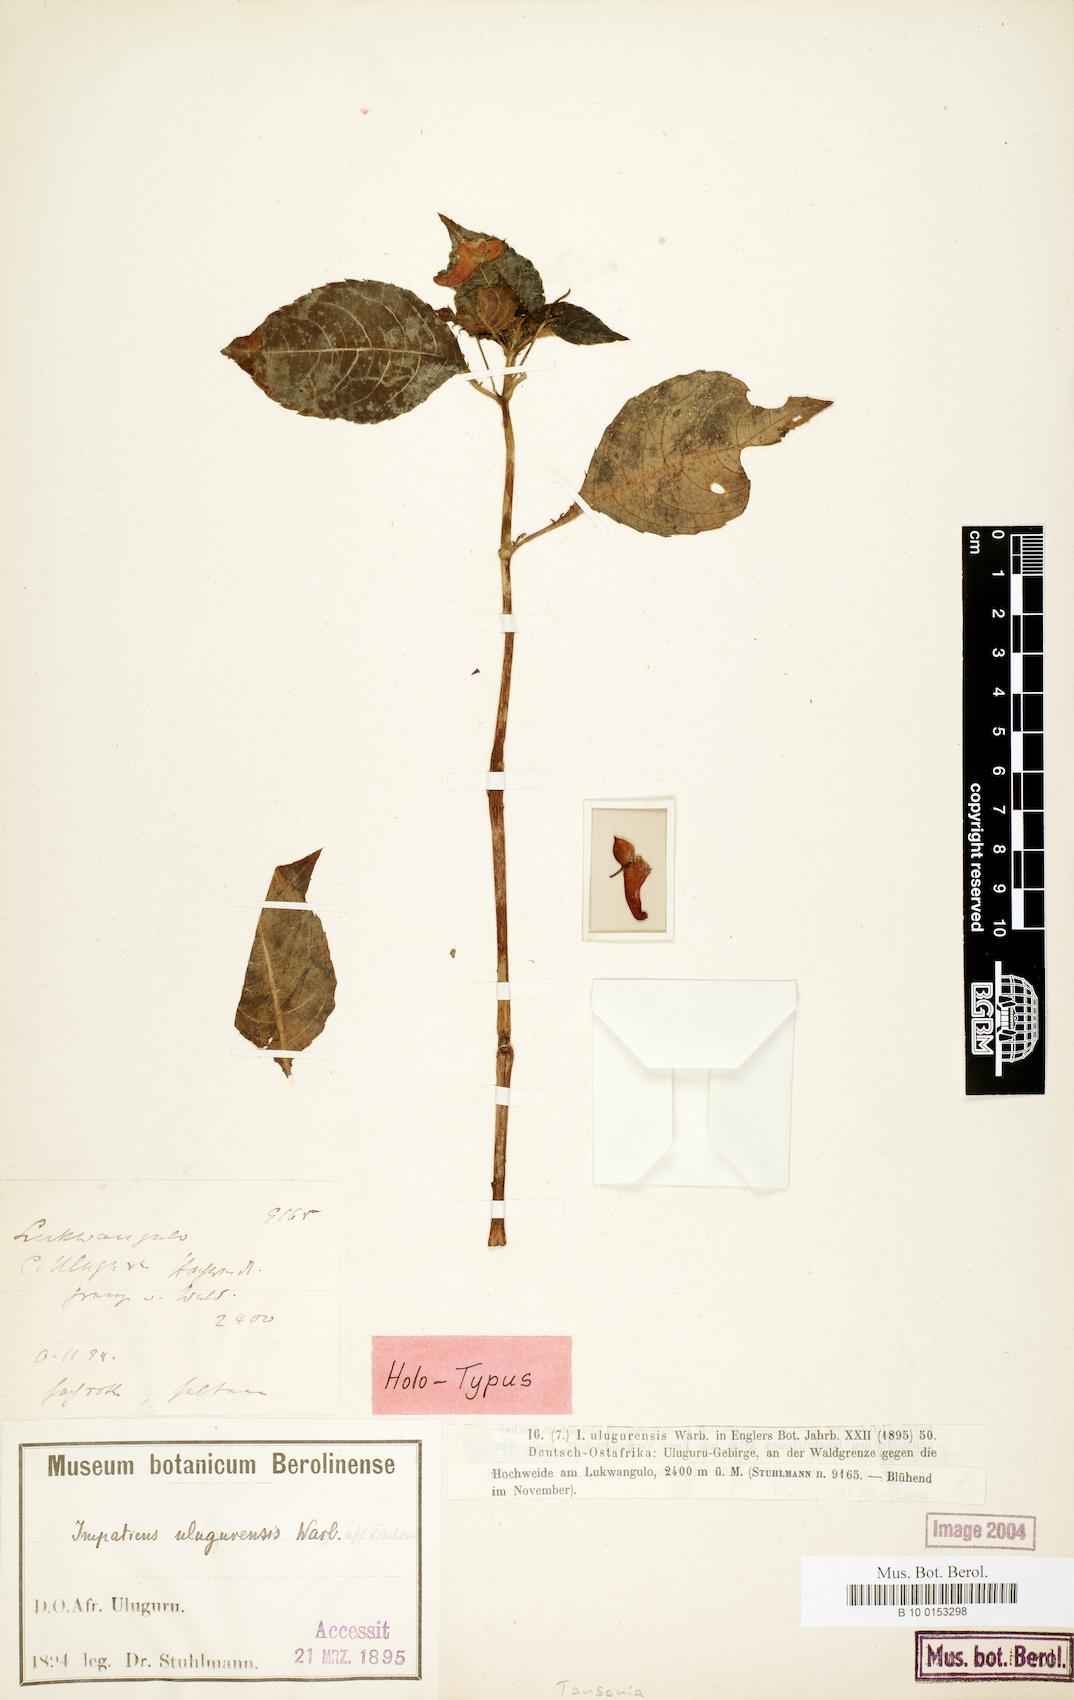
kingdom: Plantae
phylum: Tracheophyta
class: Magnoliopsida
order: Ericales
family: Balsaminaceae
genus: Impatiens
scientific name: Impatiens ulugurensis
